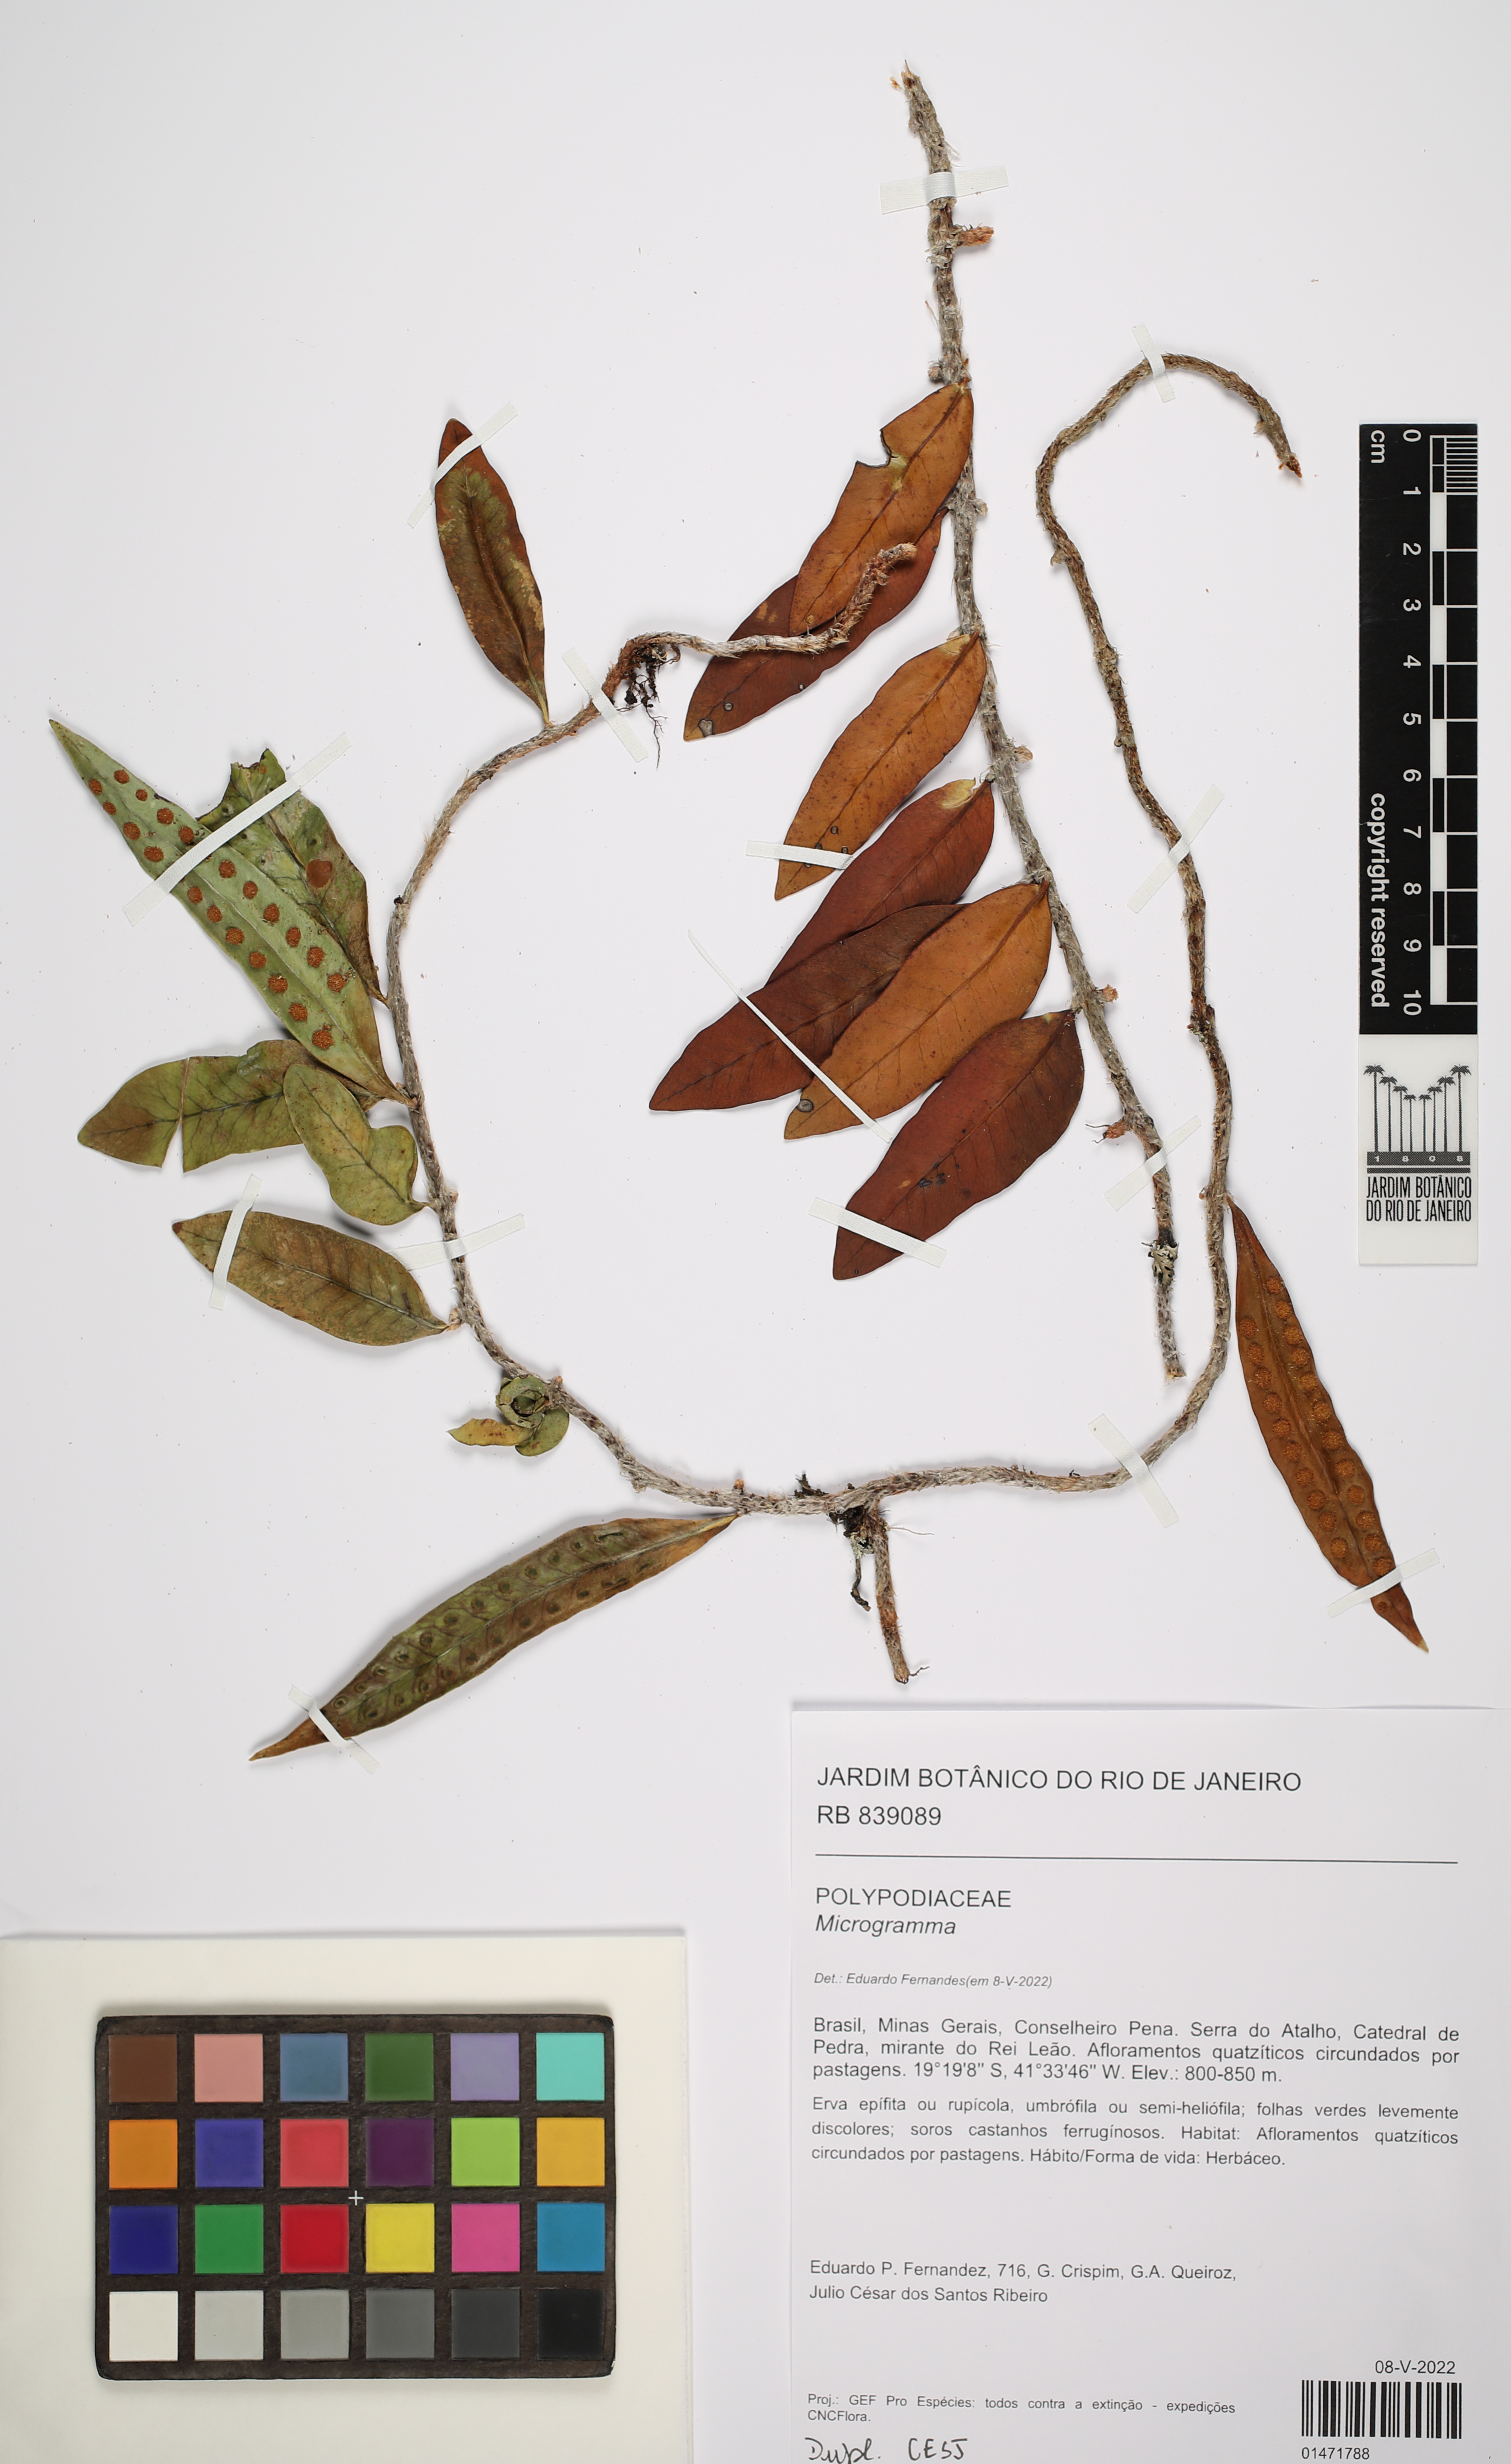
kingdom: Plantae
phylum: Tracheophyta
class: Polypodiopsida
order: Polypodiales
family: Polypodiaceae
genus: Microgramma
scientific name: Microgramma
